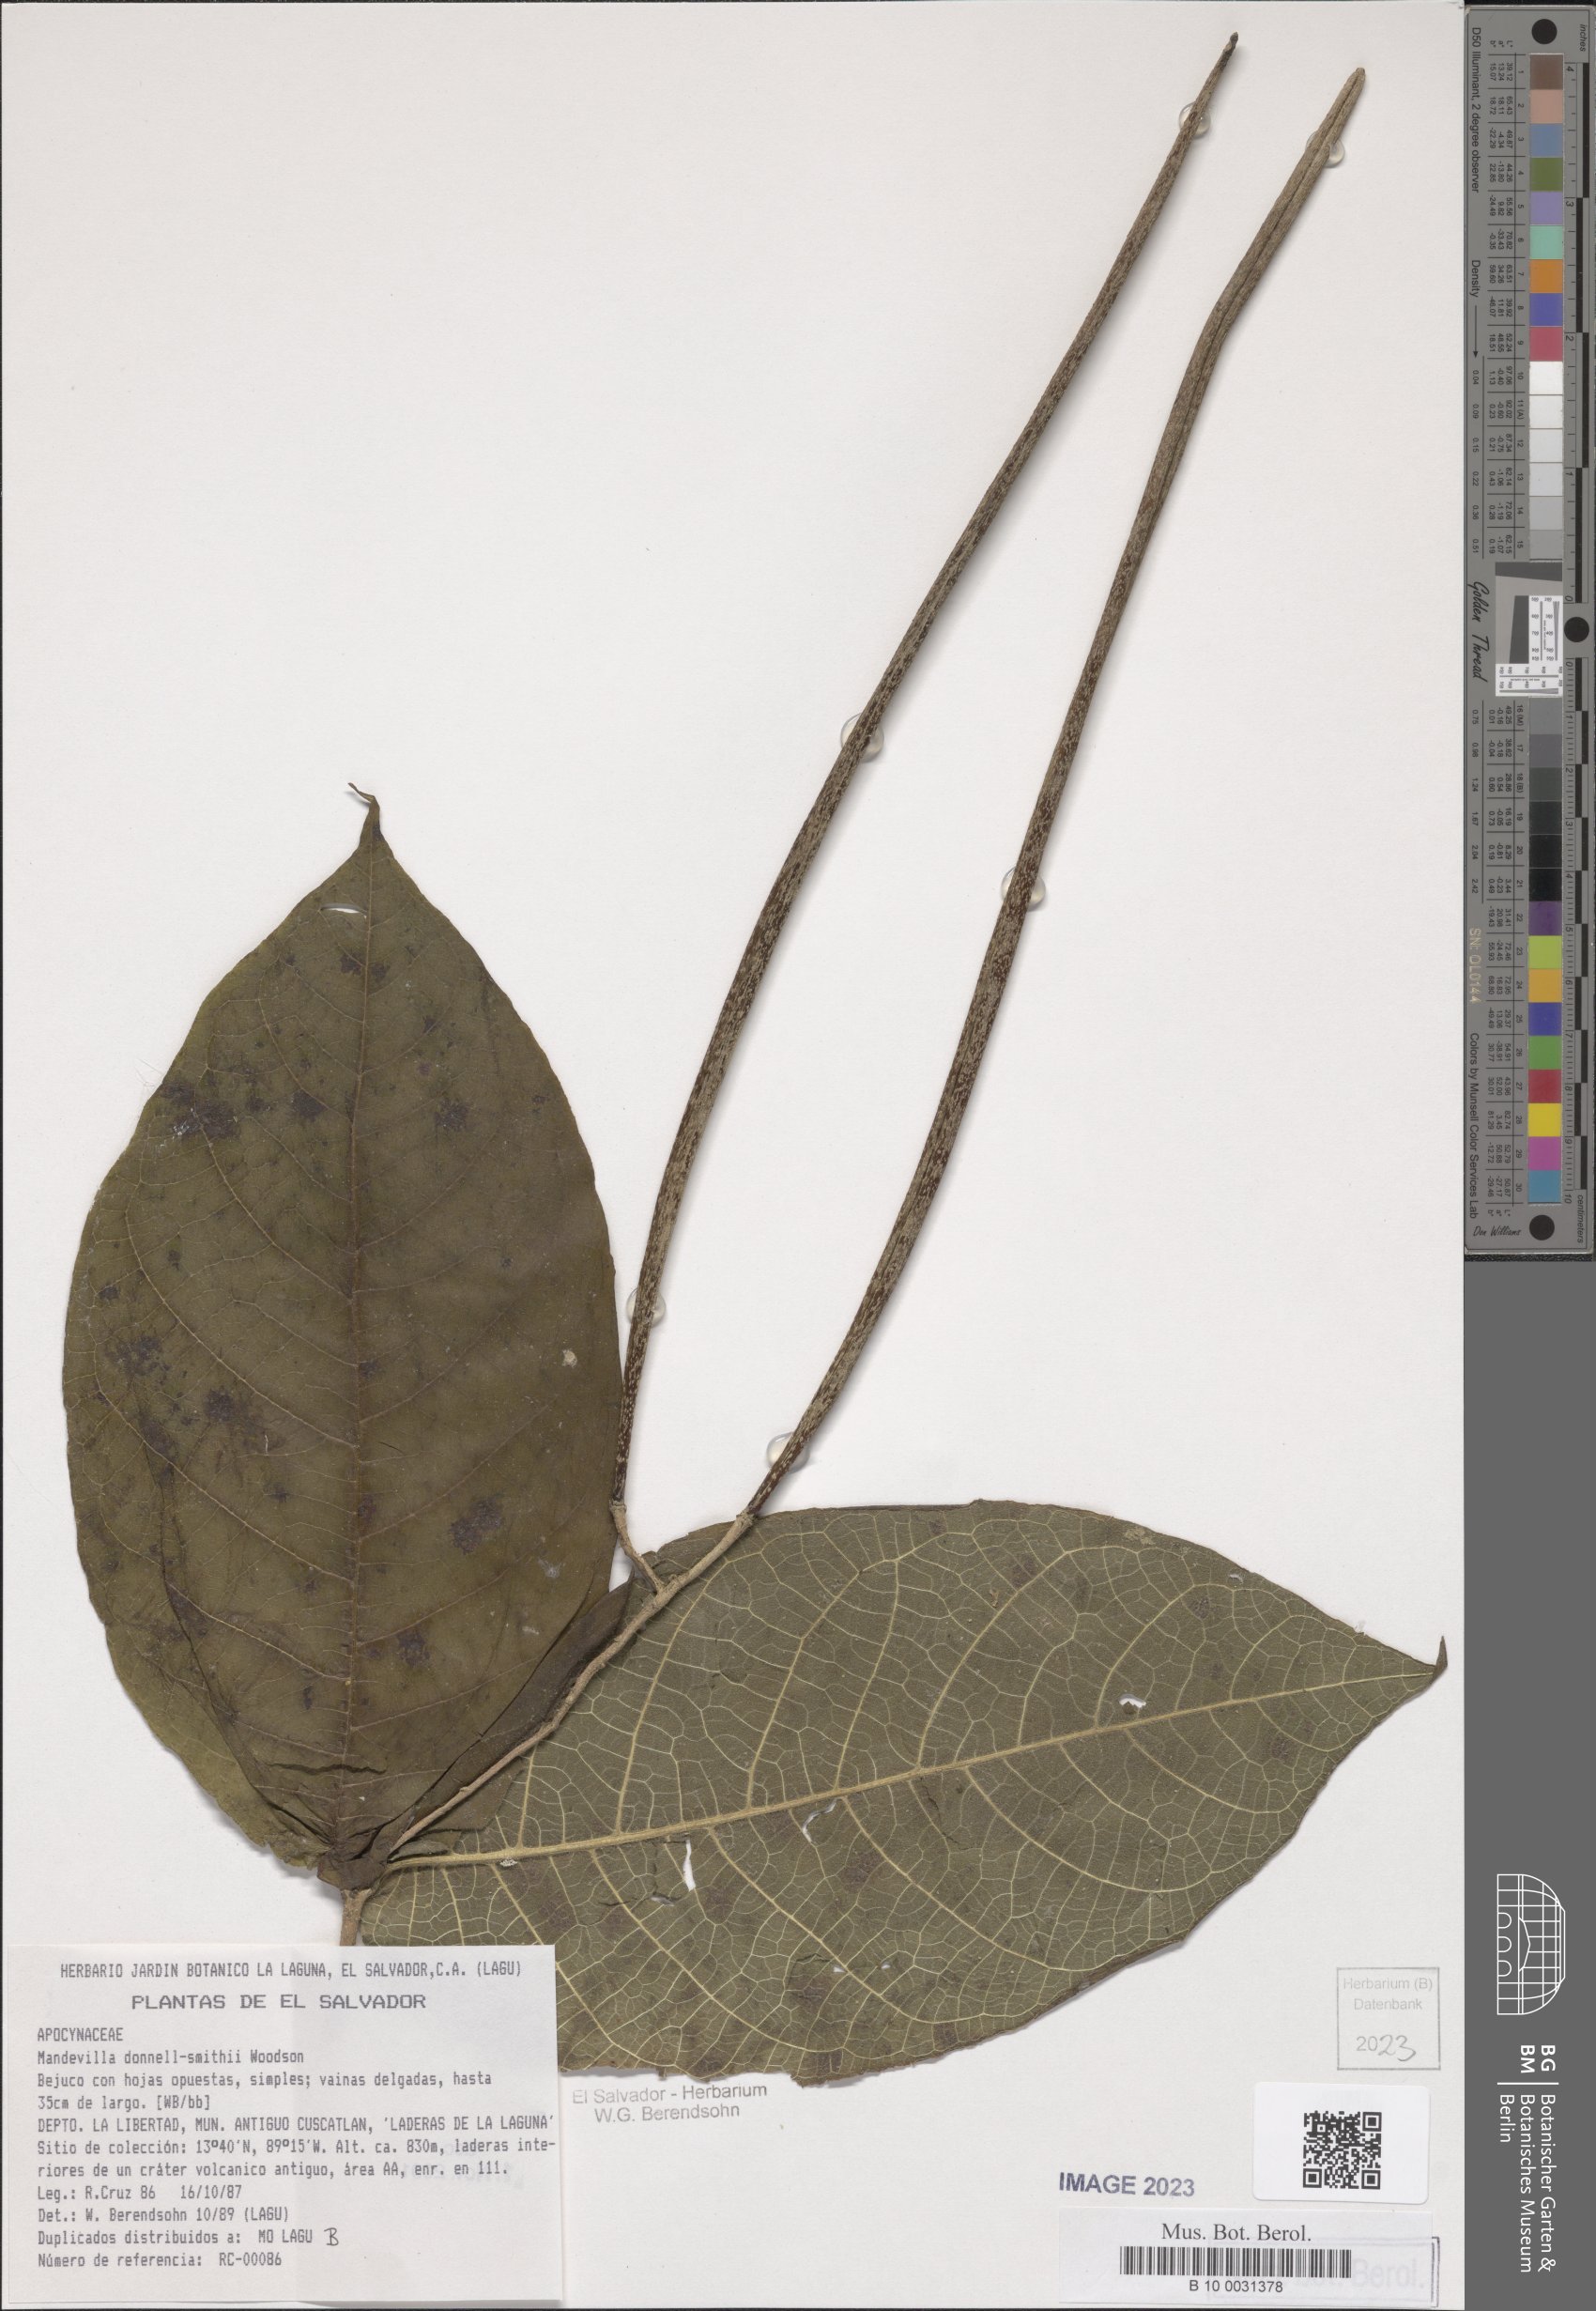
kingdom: Plantae
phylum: Tracheophyta
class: Magnoliopsida
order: Gentianales
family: Apocynaceae
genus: Mandevilla
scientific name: Mandevilla tubiflora
